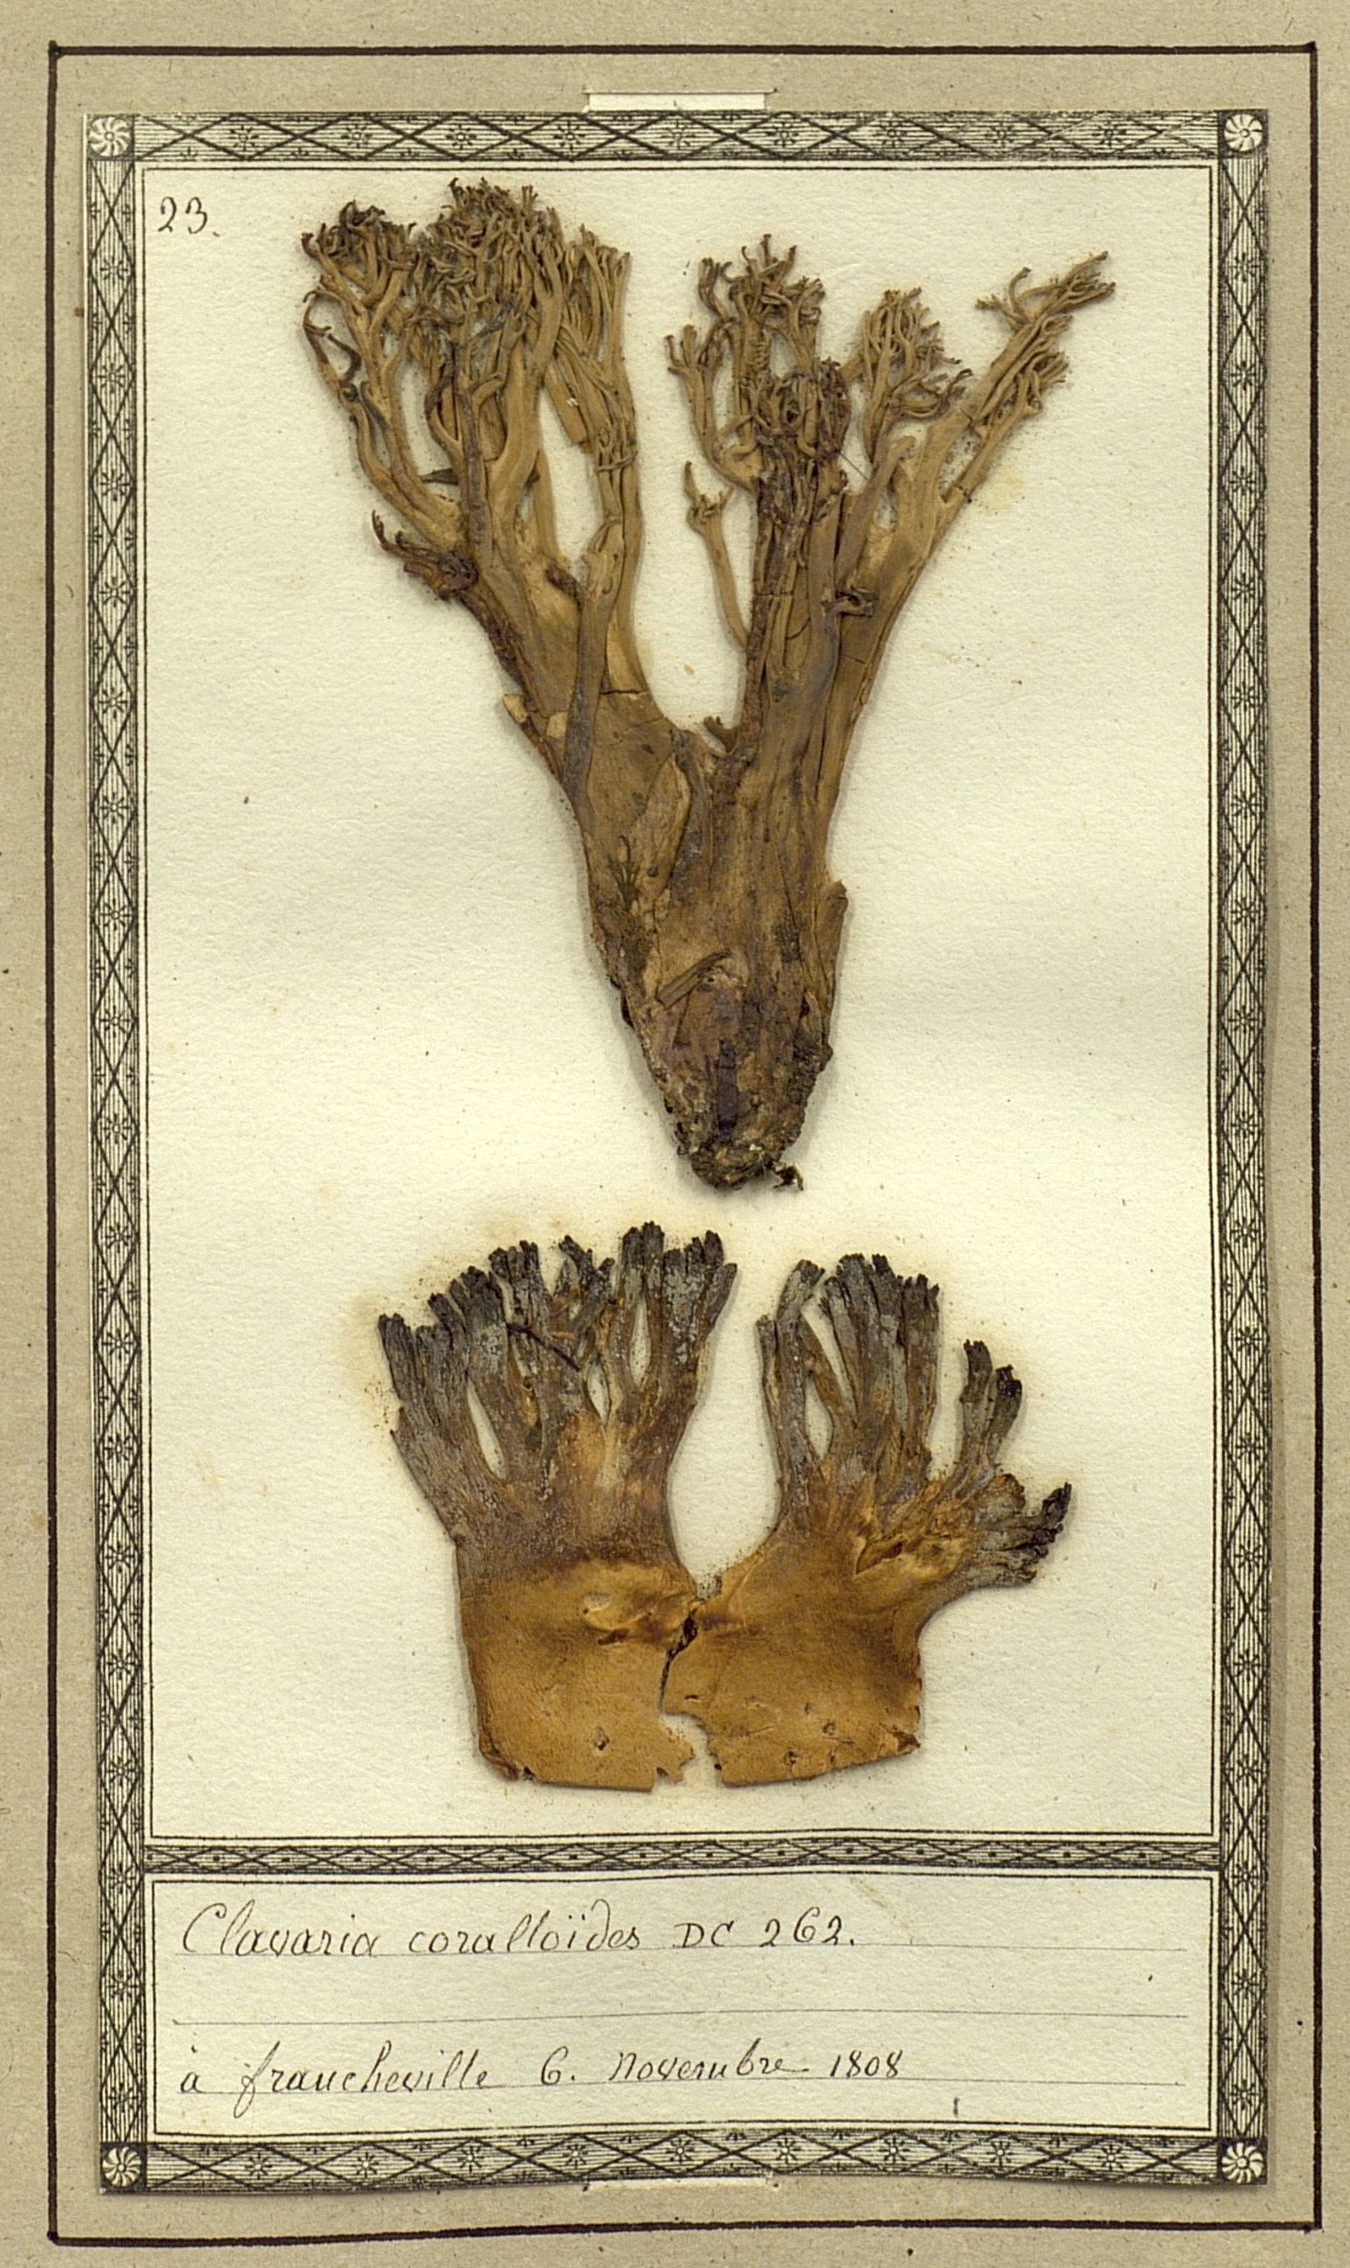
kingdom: Fungi
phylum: Basidiomycota
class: Agaricomycetes
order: Agaricales
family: Clavariaceae
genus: Clavulinopsis
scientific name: Clavulinopsis fusiformis
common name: Golden spindles
